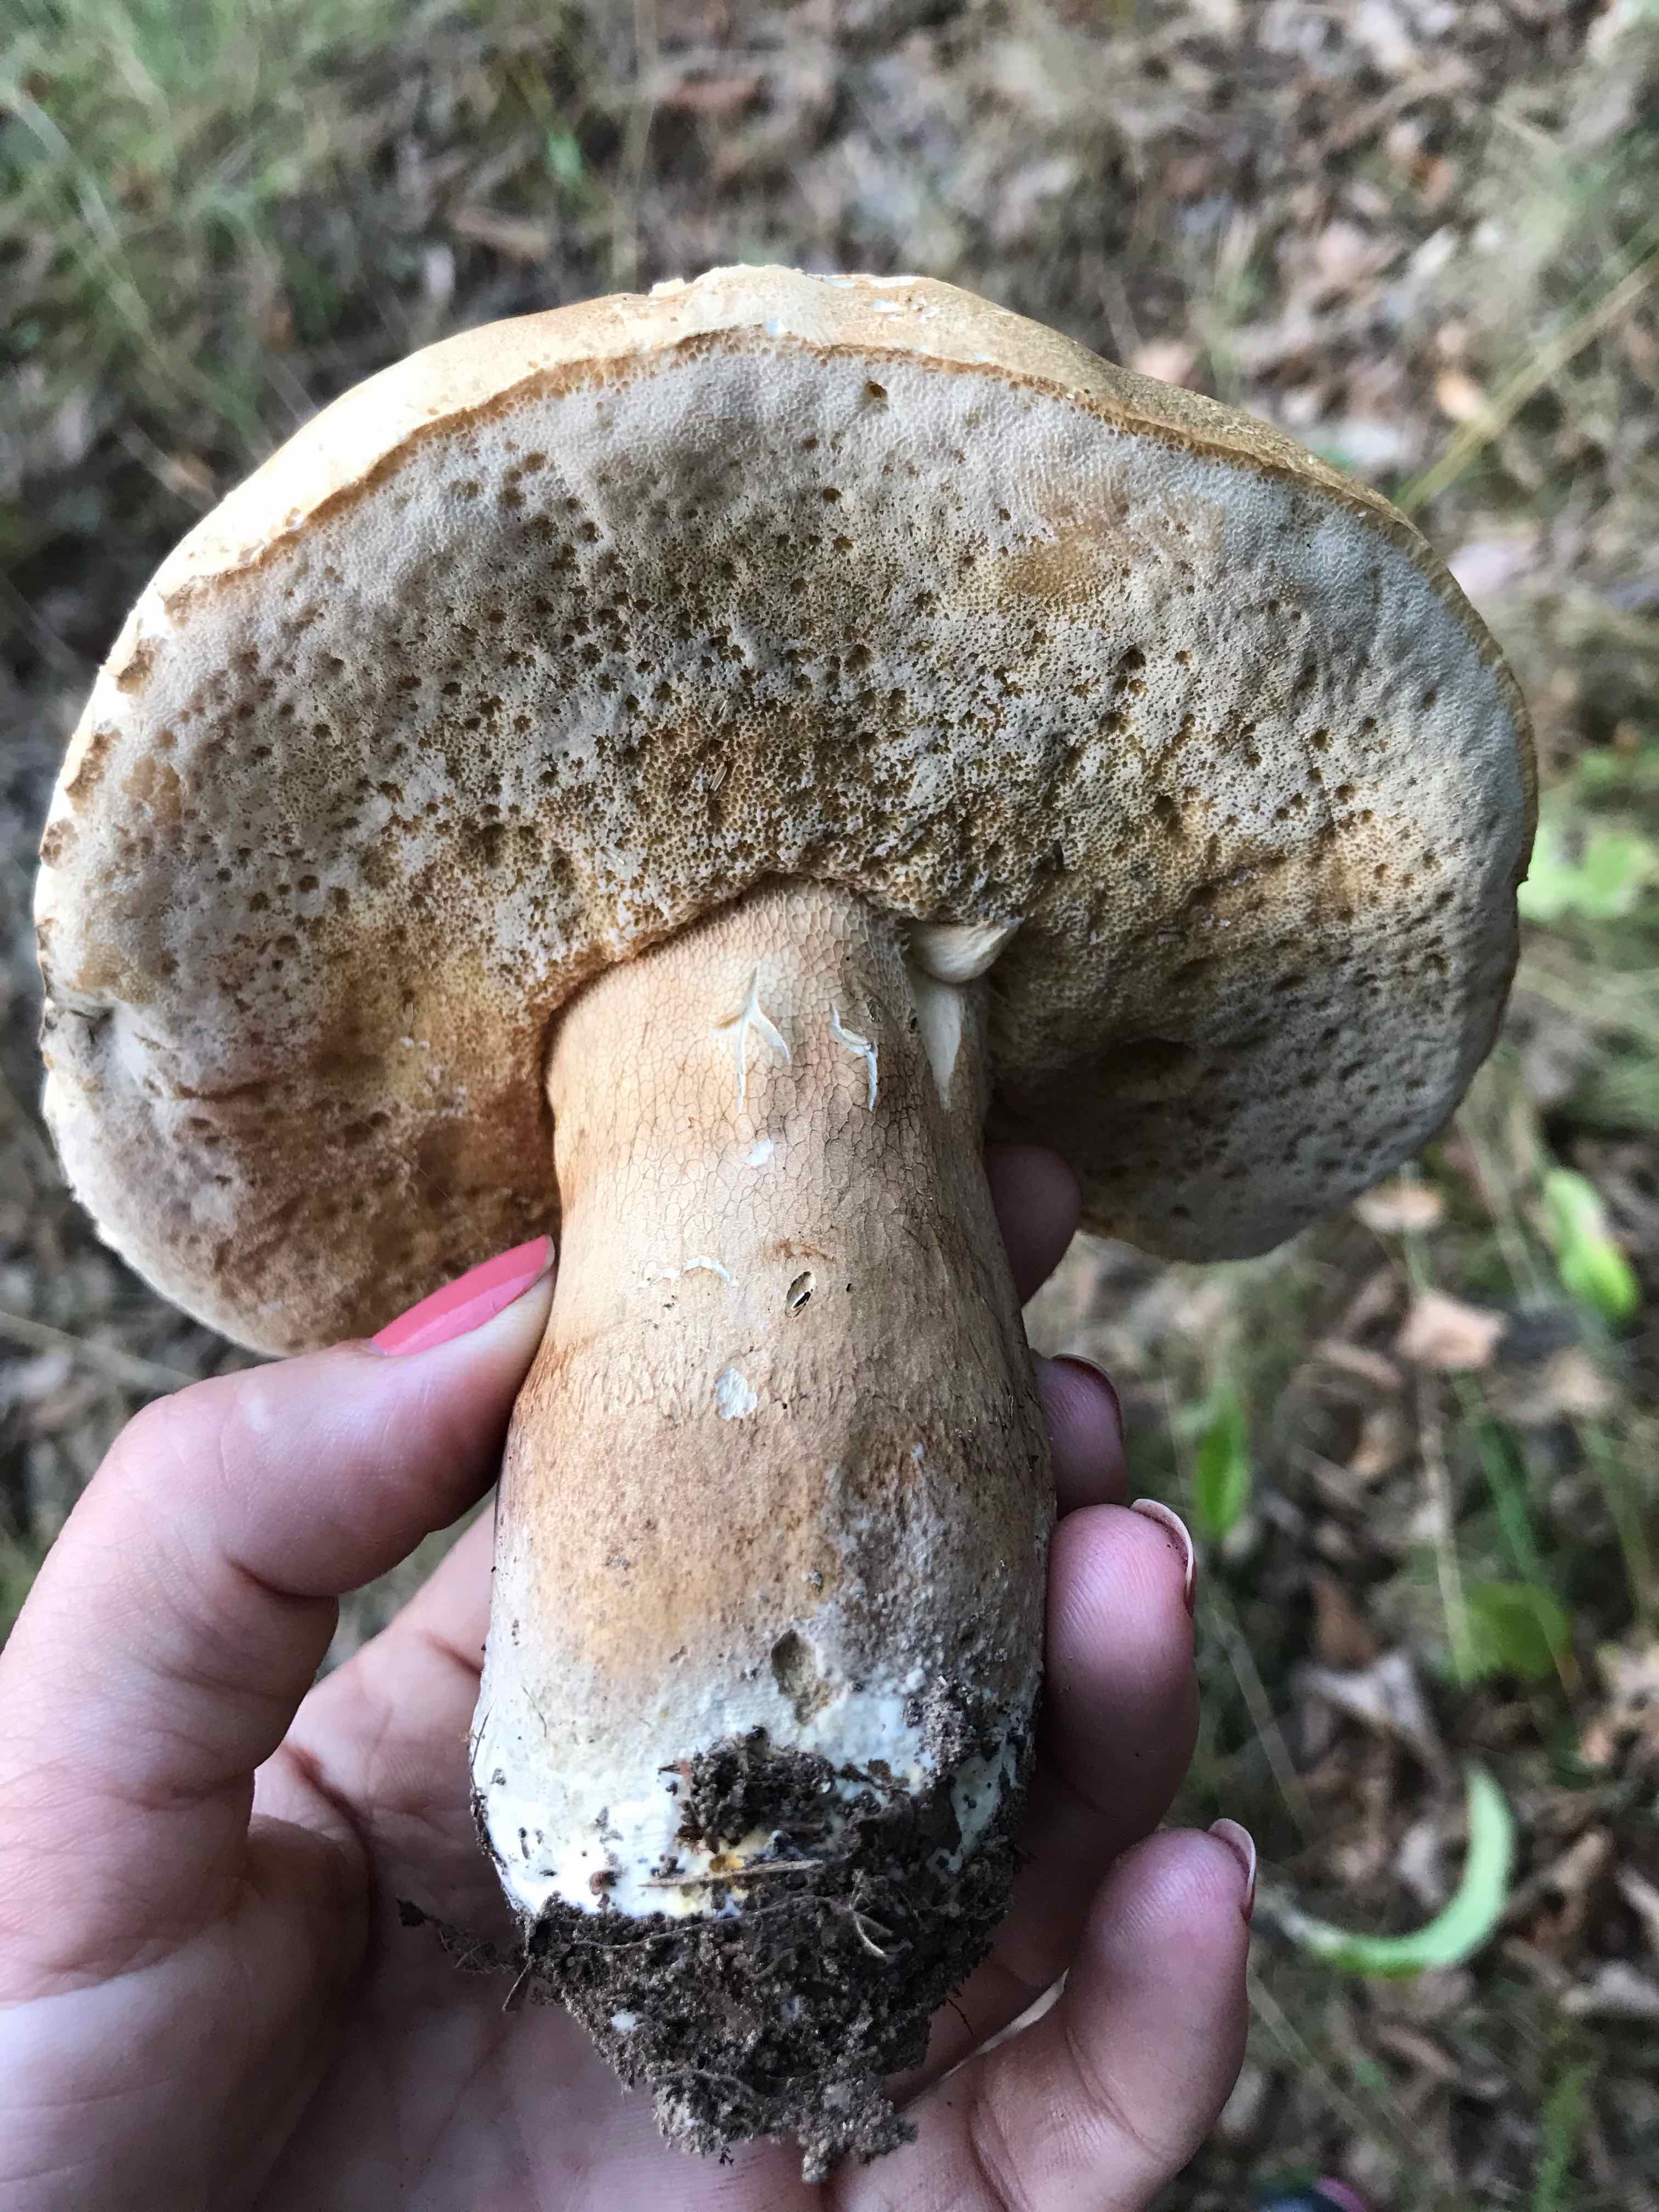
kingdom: Fungi
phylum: Basidiomycota
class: Agaricomycetes
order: Boletales
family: Boletaceae
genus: Boletus
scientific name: Boletus edulis
